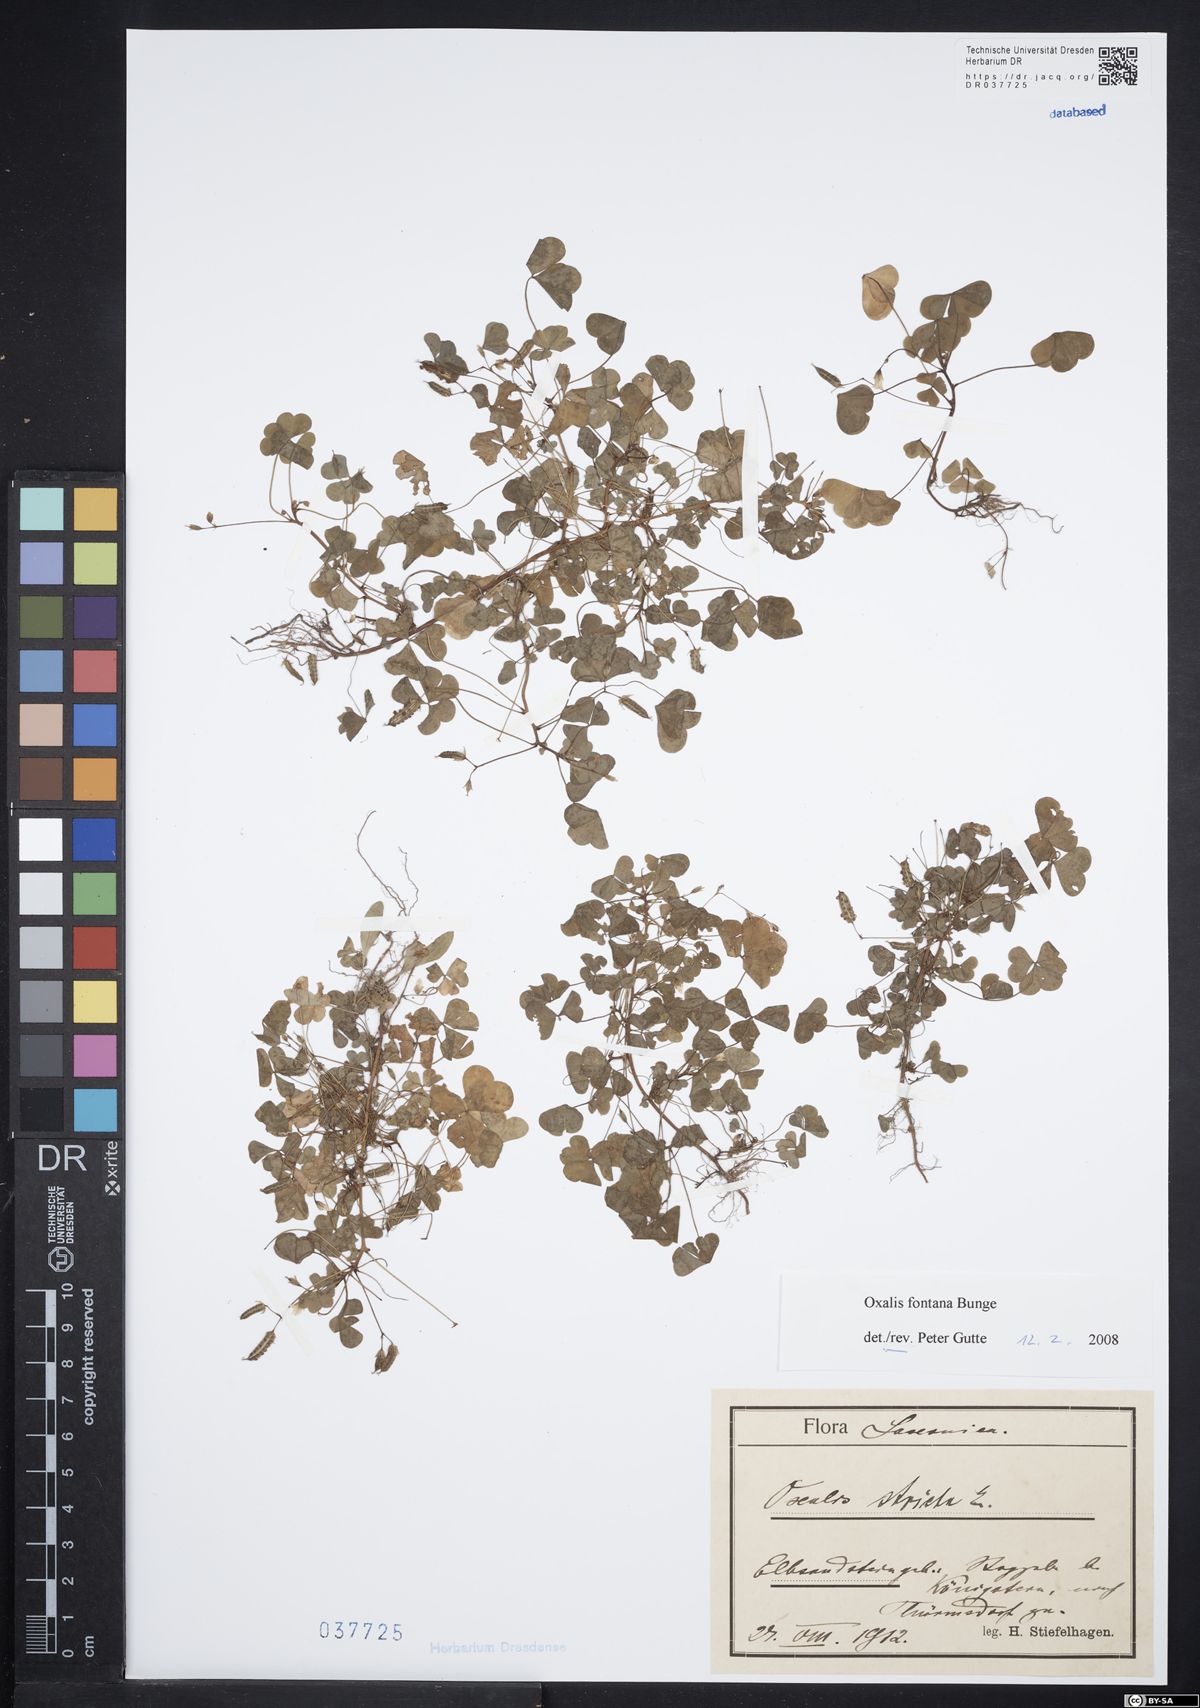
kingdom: Plantae
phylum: Tracheophyta
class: Magnoliopsida
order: Oxalidales
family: Oxalidaceae
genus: Oxalis
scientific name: Oxalis stricta
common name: Upright yellow-sorrel
